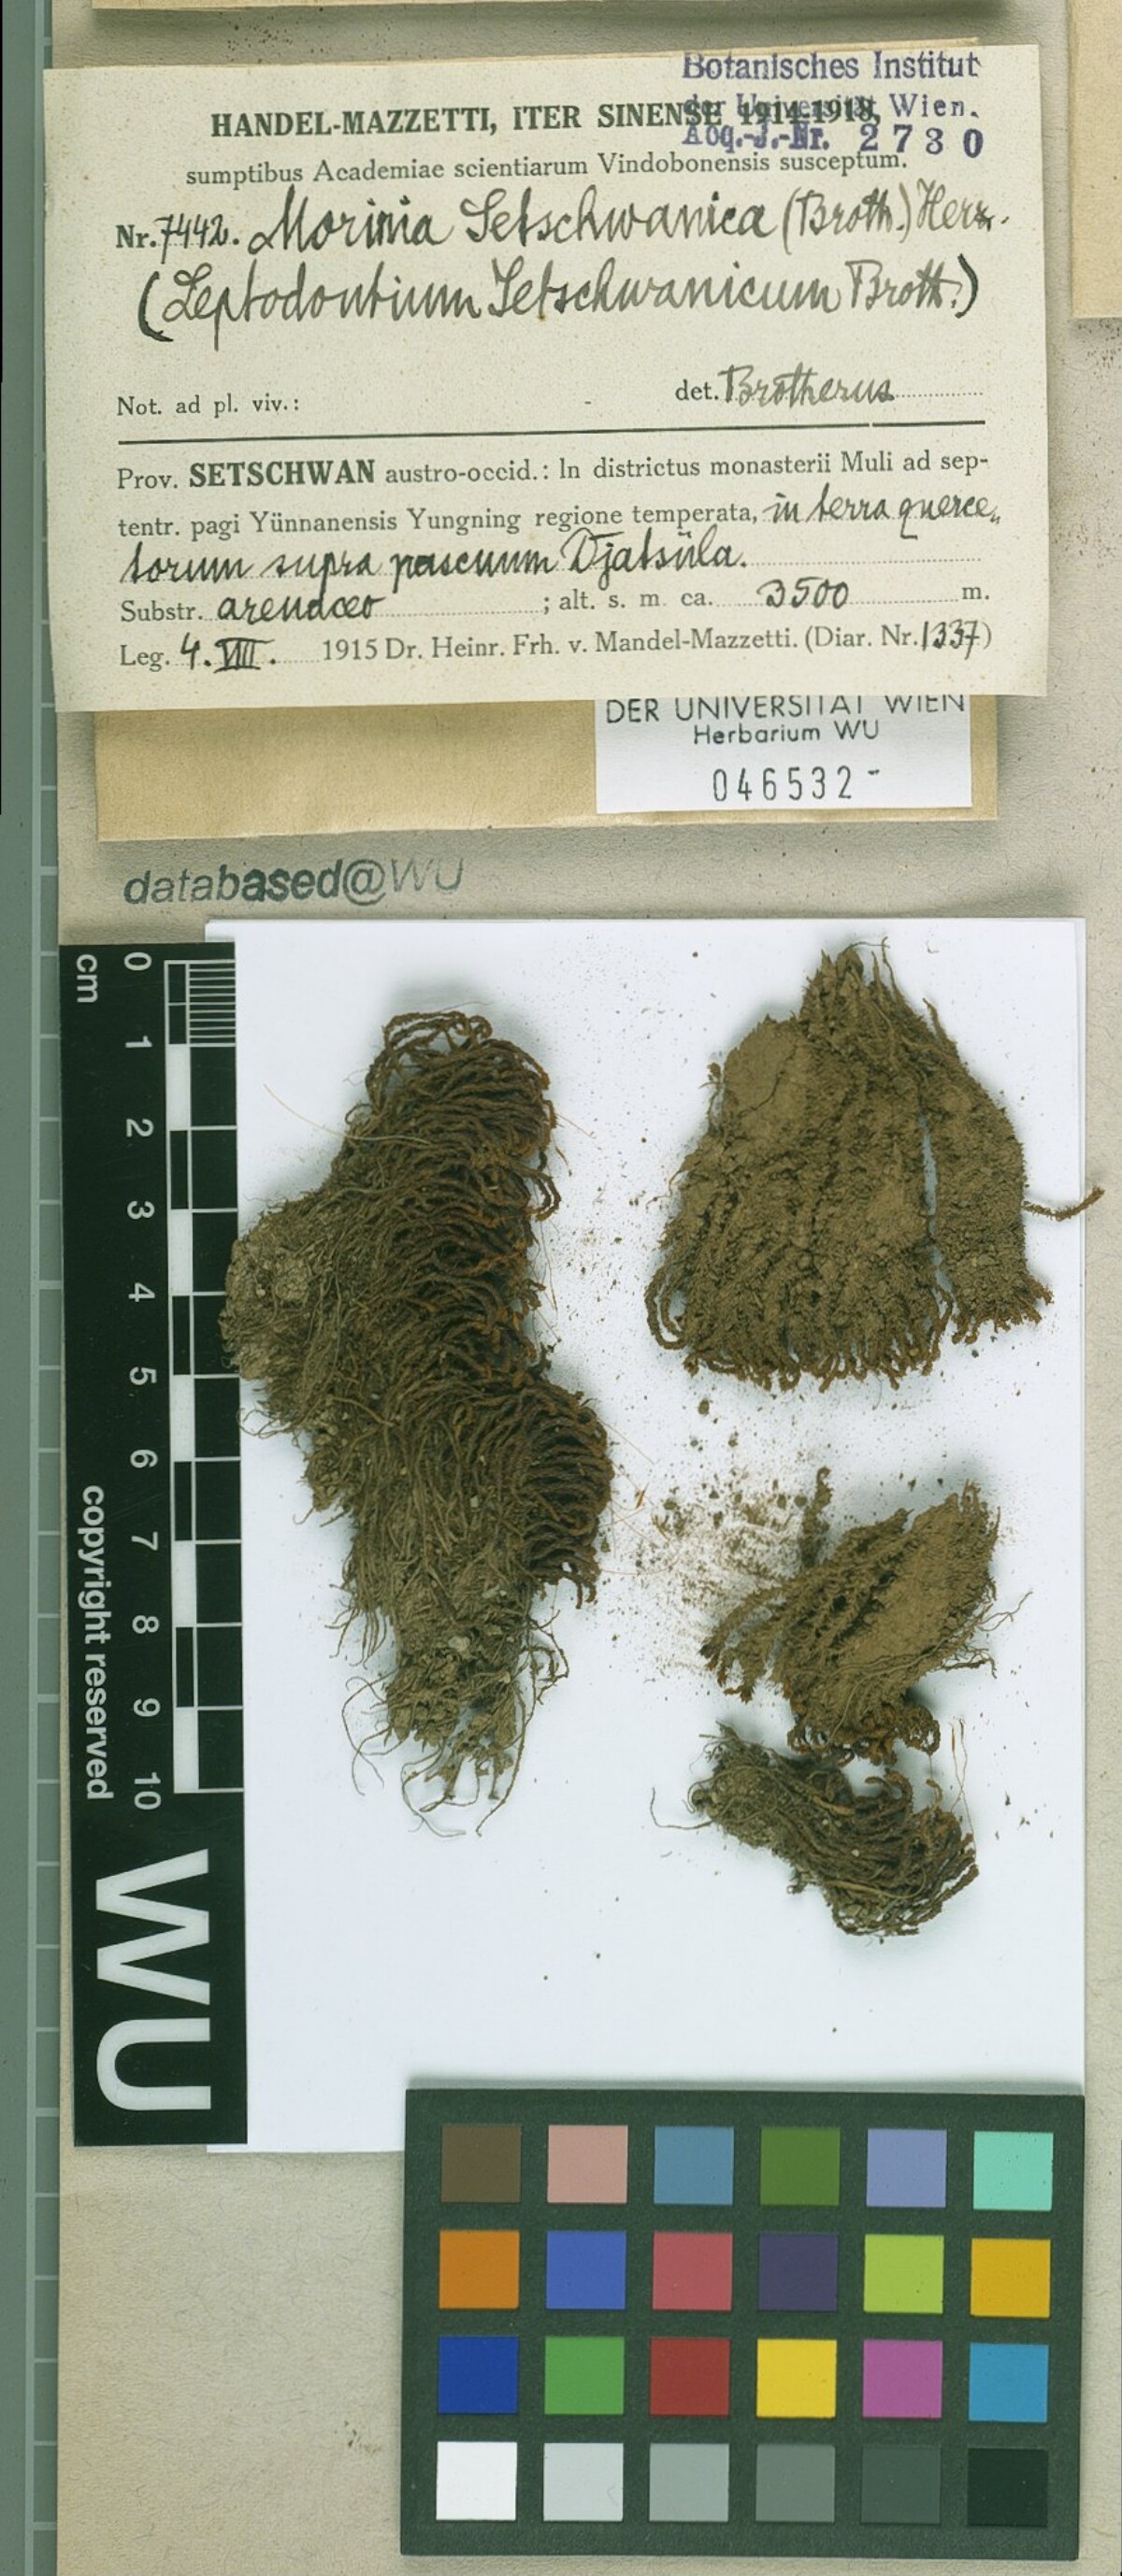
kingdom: Plantae
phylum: Bryophyta
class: Bryopsida
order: Pottiales
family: Pottiaceae
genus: Geheebia
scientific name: Geheebia erosodenticulata
